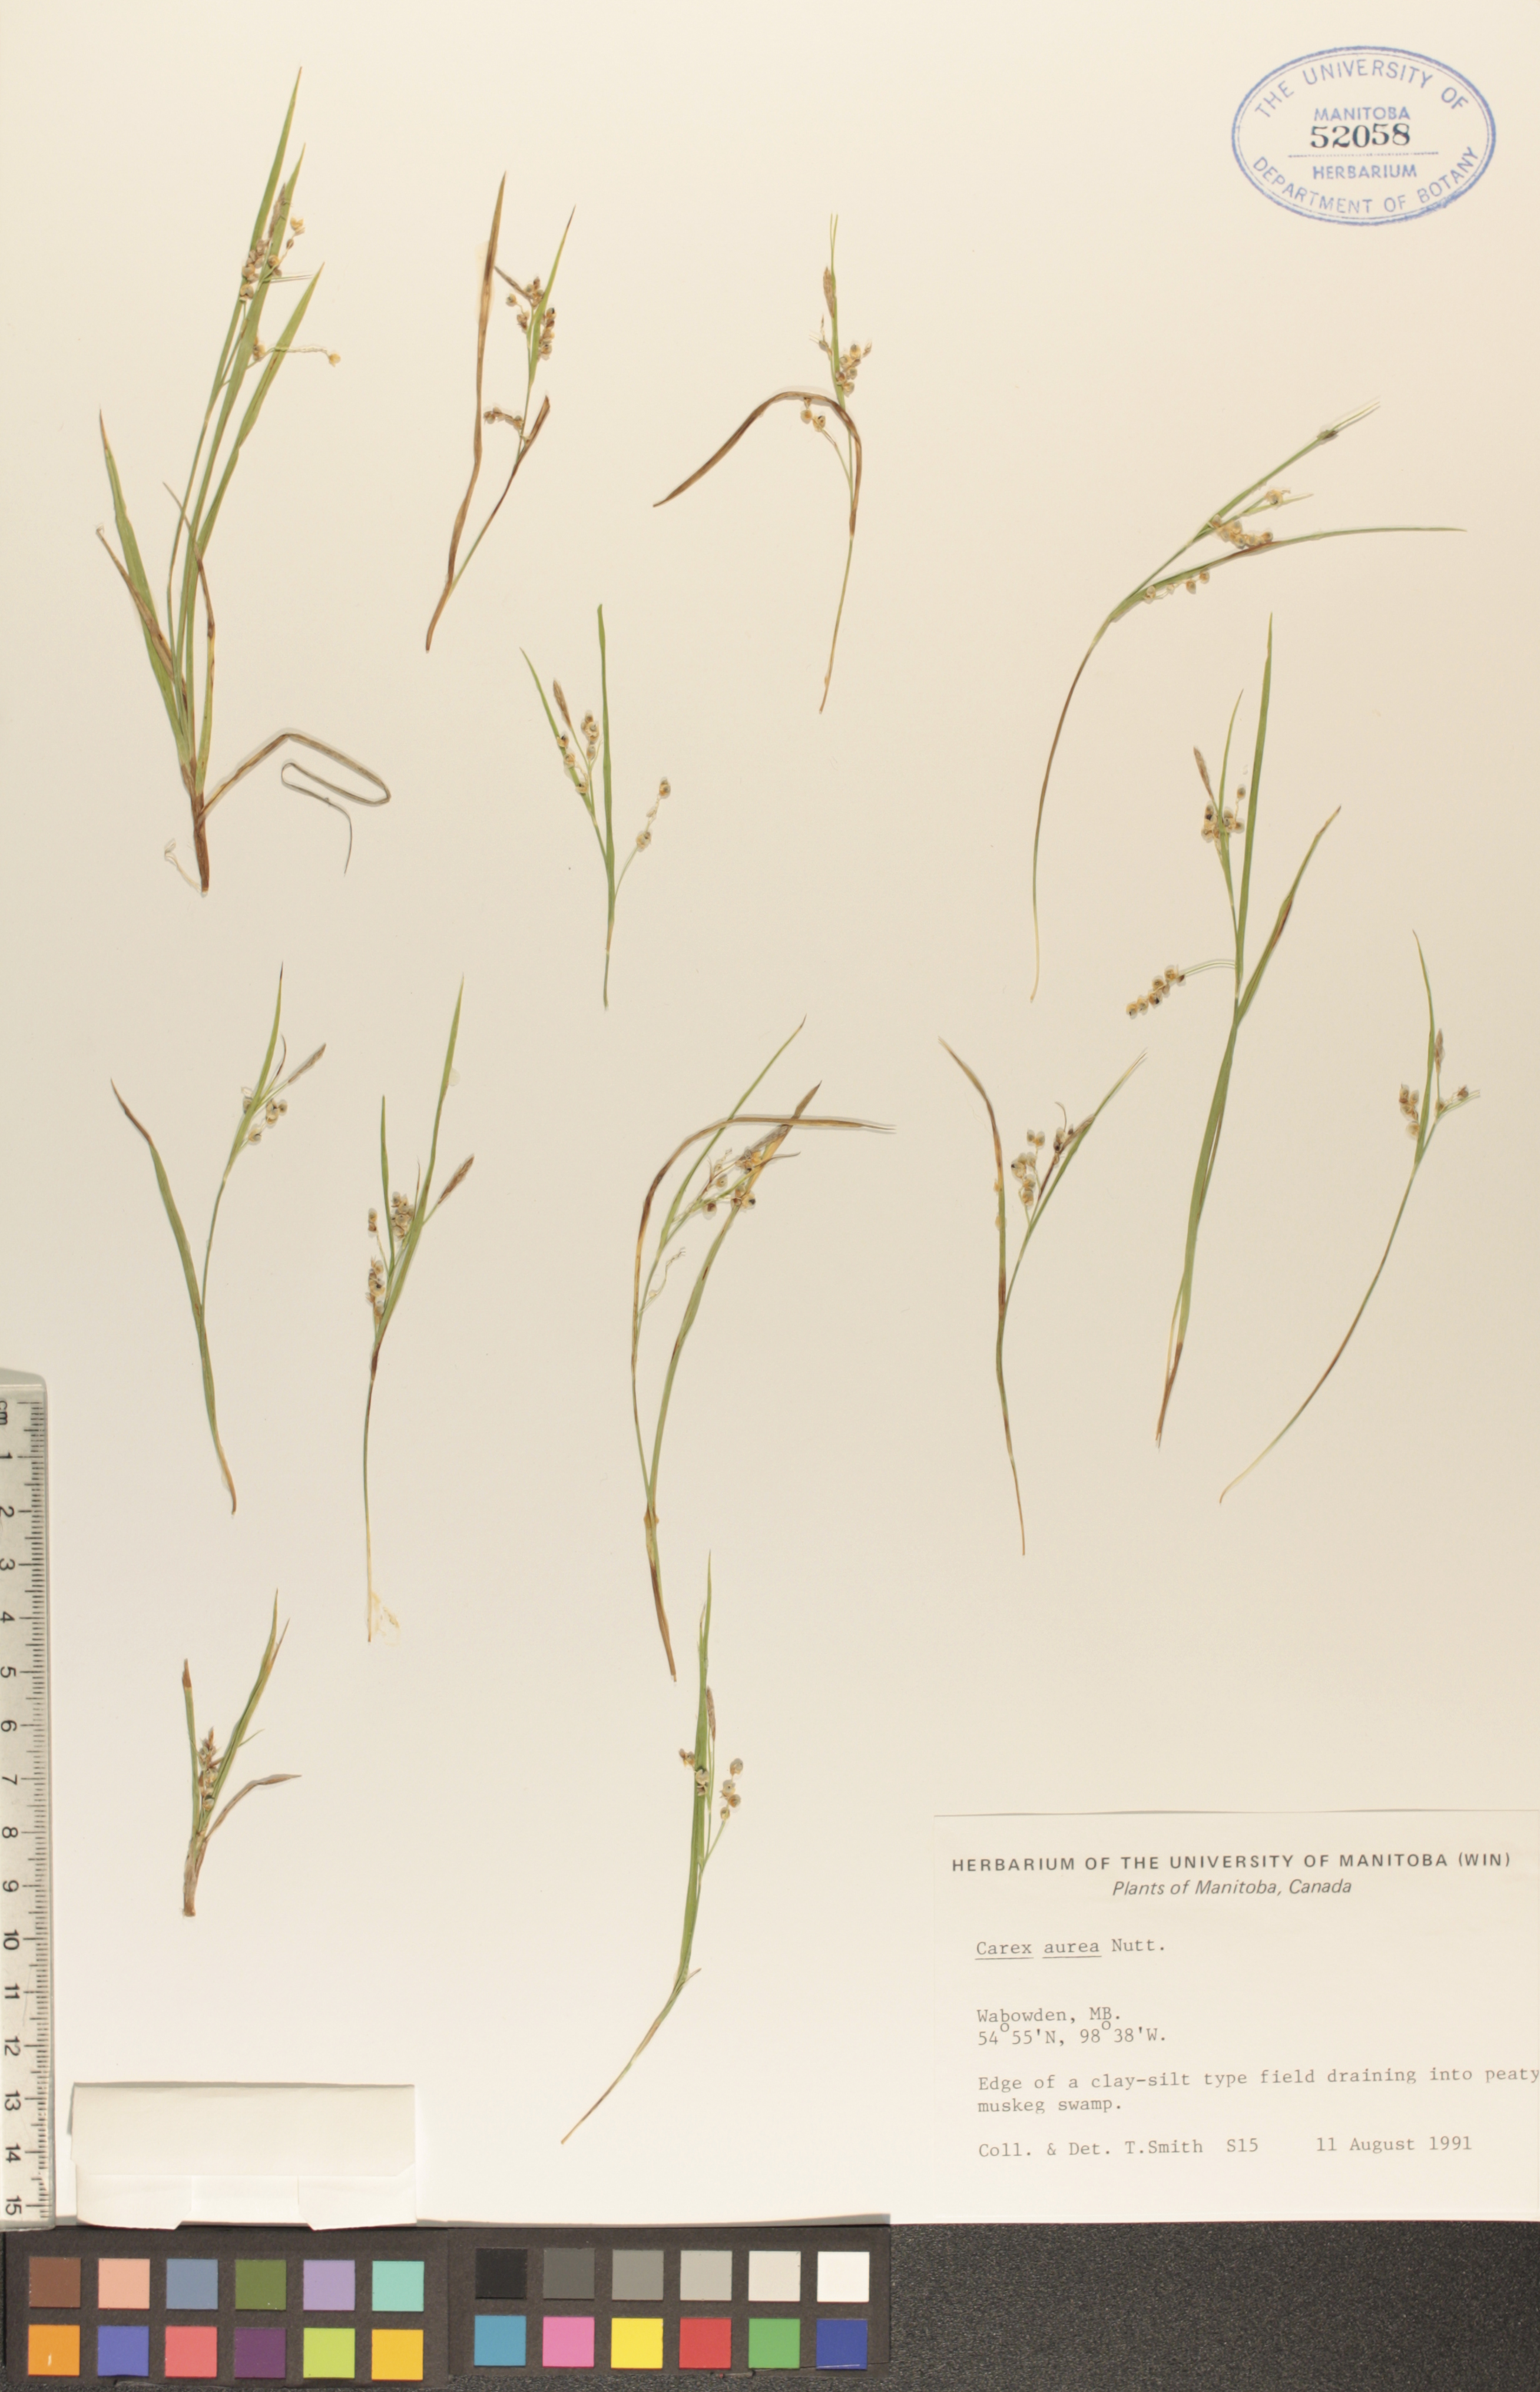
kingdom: Plantae
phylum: Tracheophyta
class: Liliopsida
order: Poales
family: Cyperaceae
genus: Carex
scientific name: Carex aurea
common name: Golden sedge
